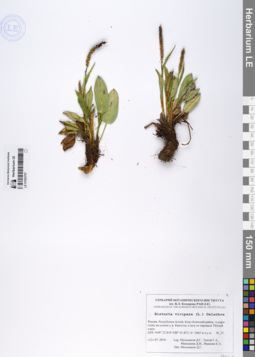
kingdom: Plantae
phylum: Tracheophyta
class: Magnoliopsida
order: Caryophyllales
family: Polygonaceae
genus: Bistorta
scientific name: Bistorta vivipara
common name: Alpine bistort
